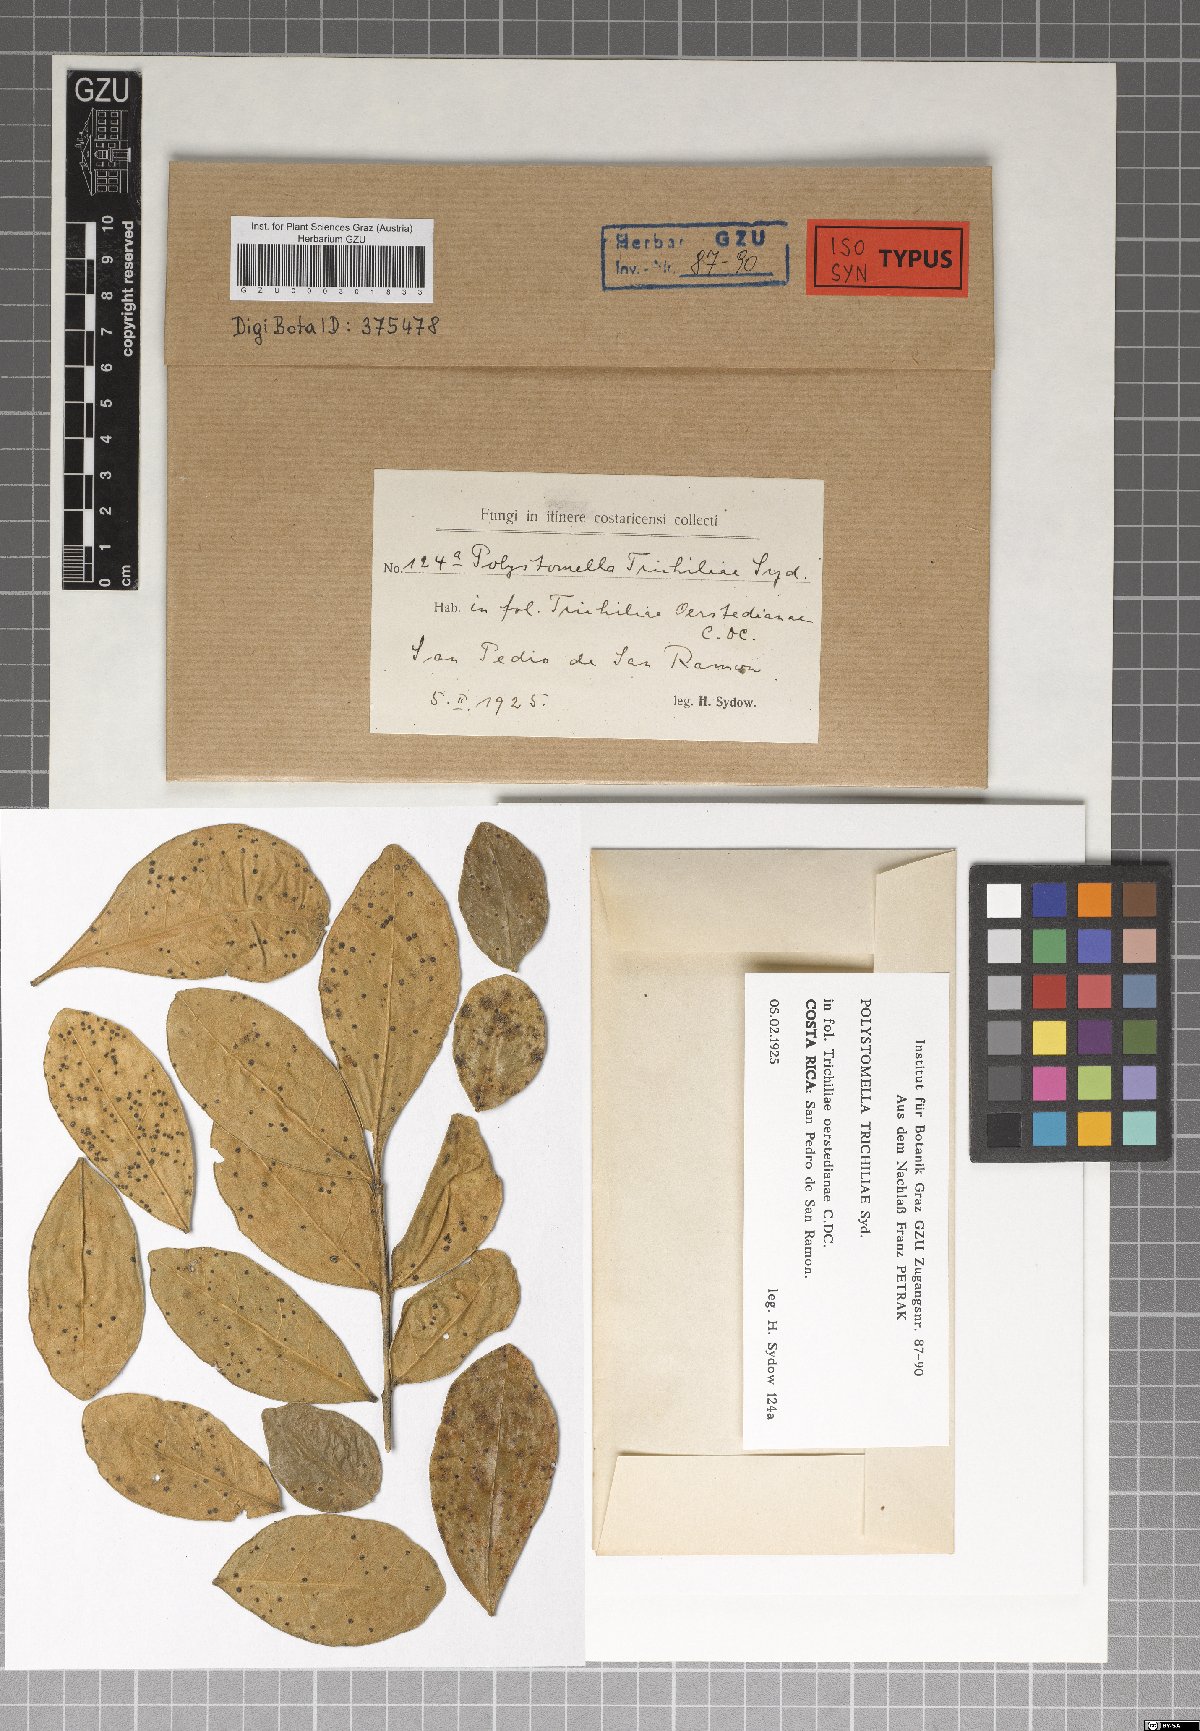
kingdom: Fungi
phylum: Ascomycota
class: Dothideomycetes
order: Asterinales
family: Parmulariaceae
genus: Protothyrium
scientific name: Protothyrium trichiliae
